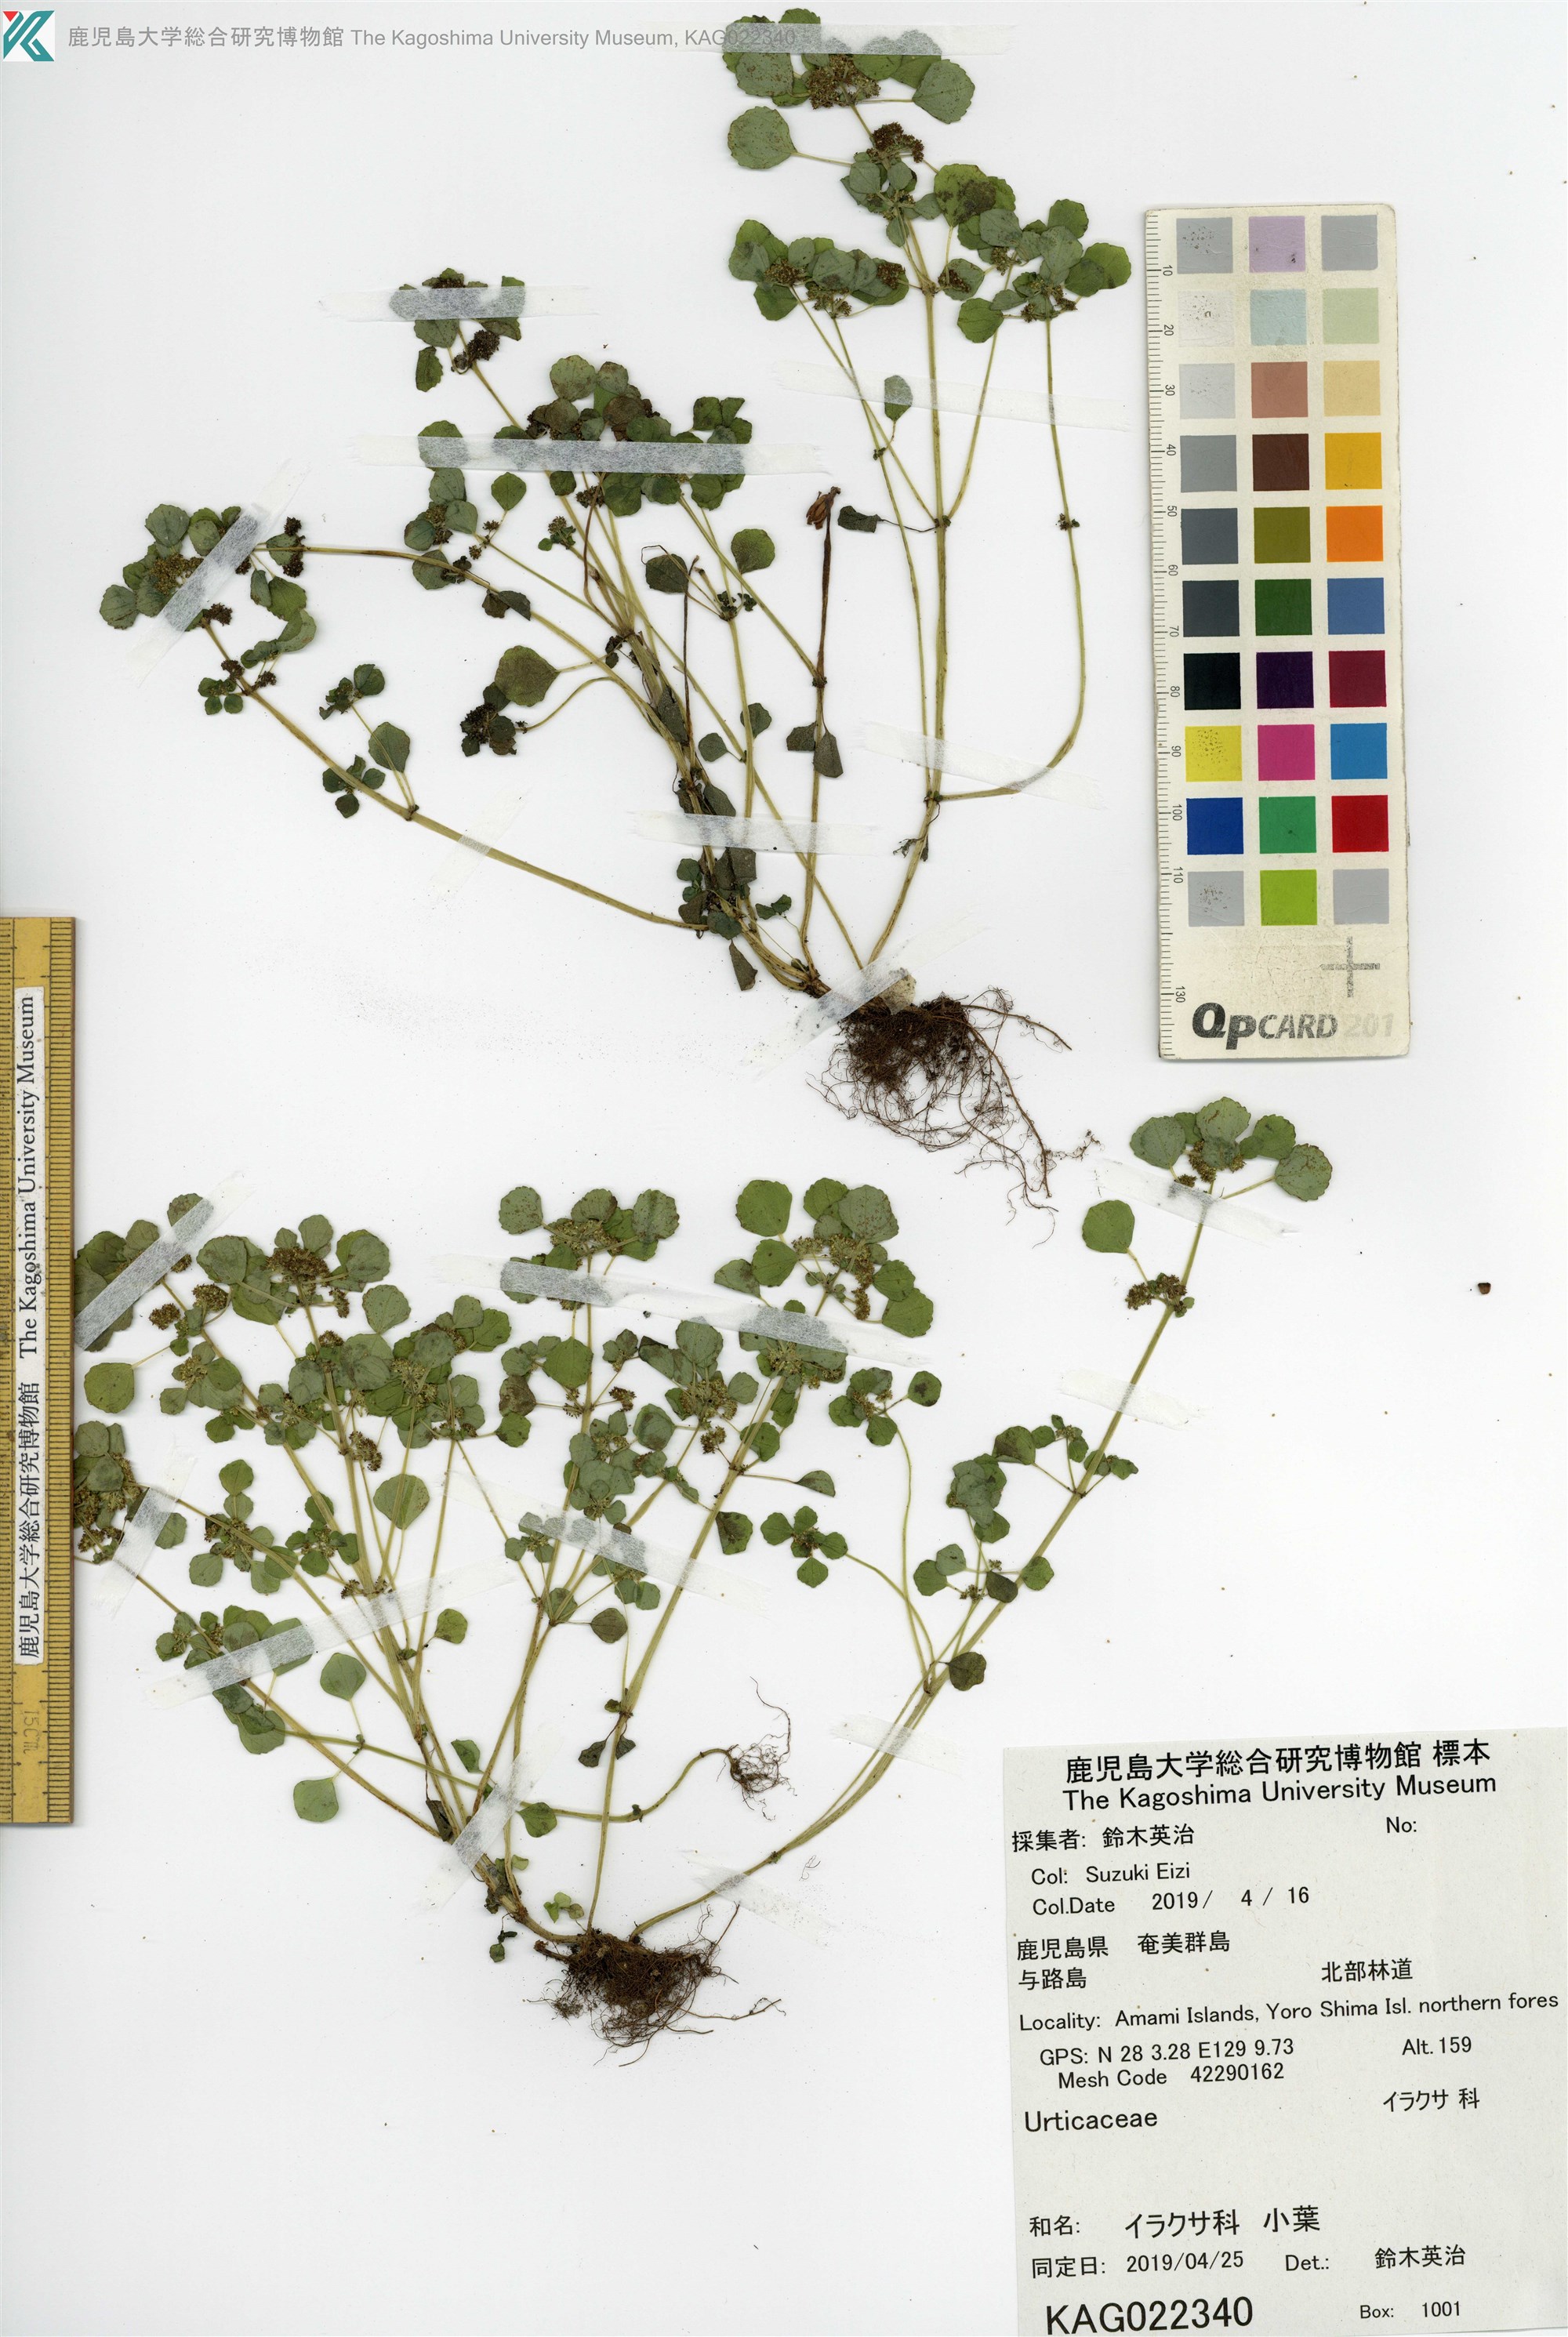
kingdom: Plantae
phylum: Tracheophyta
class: Magnoliopsida
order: Rosales
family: Urticaceae
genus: Pilea
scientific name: Pilea peploides
